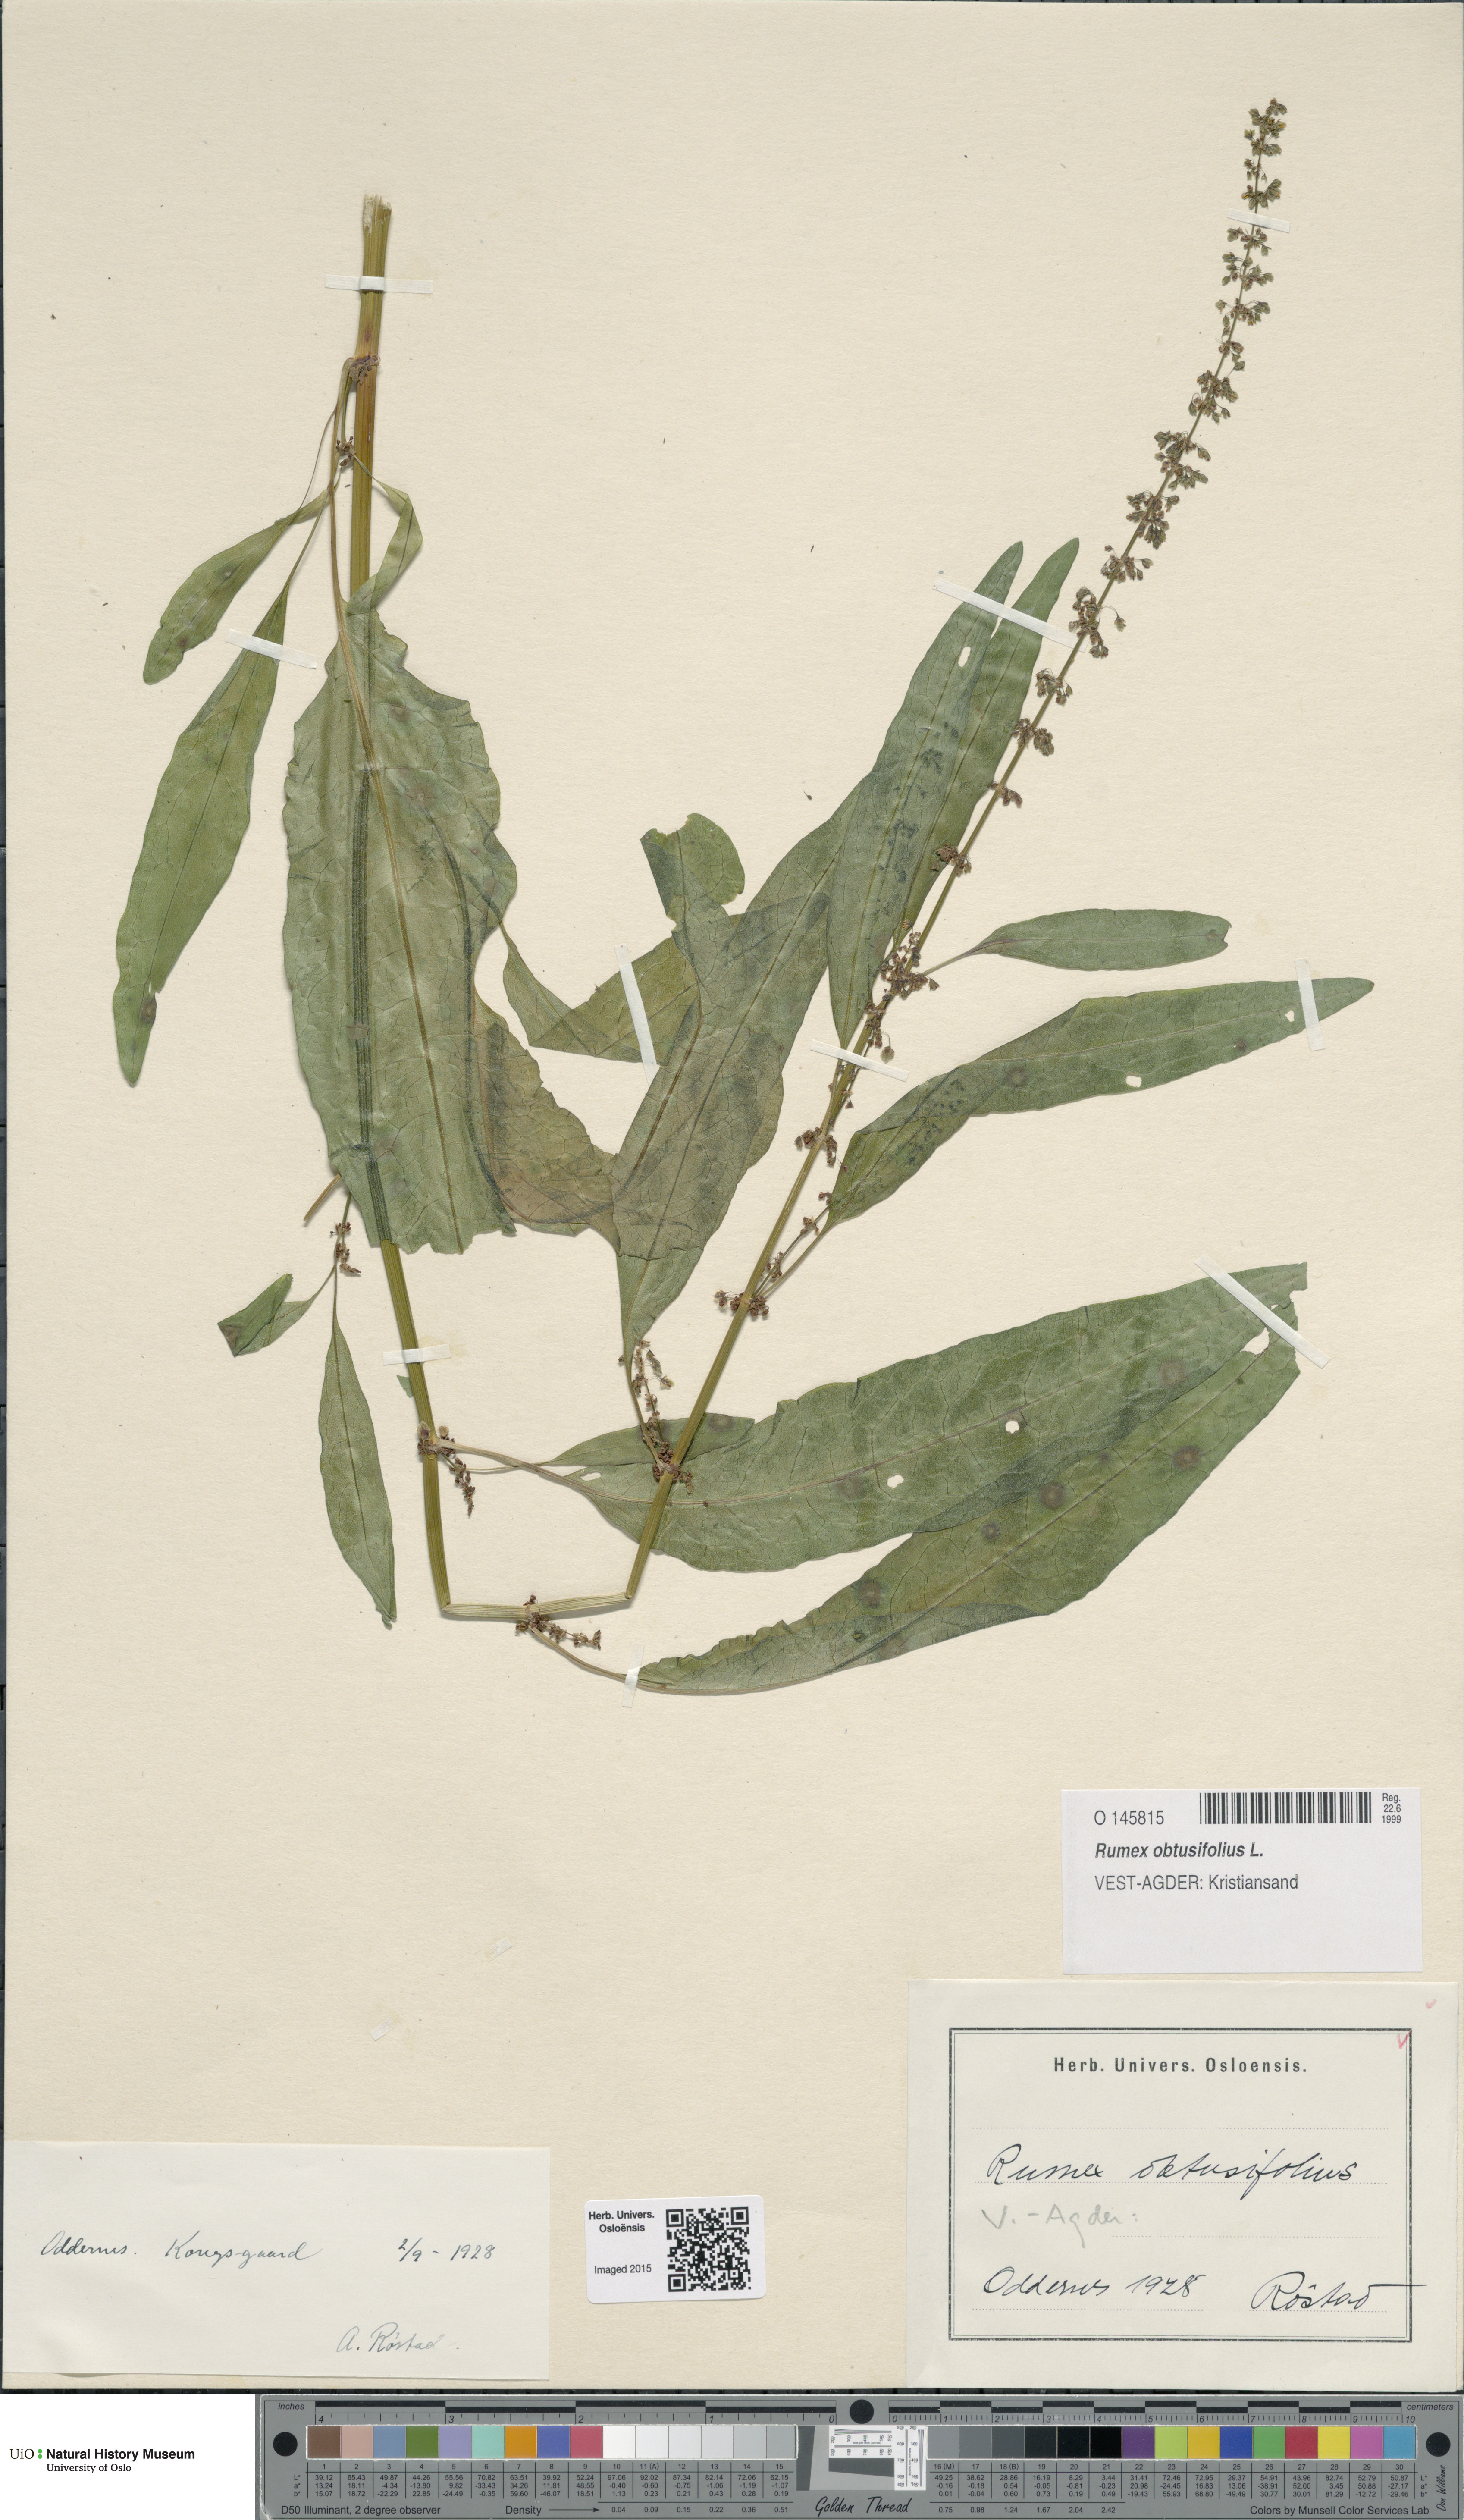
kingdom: Plantae
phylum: Tracheophyta
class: Magnoliopsida
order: Caryophyllales
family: Polygonaceae
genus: Rumex
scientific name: Rumex obtusifolius
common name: Bitter dock
